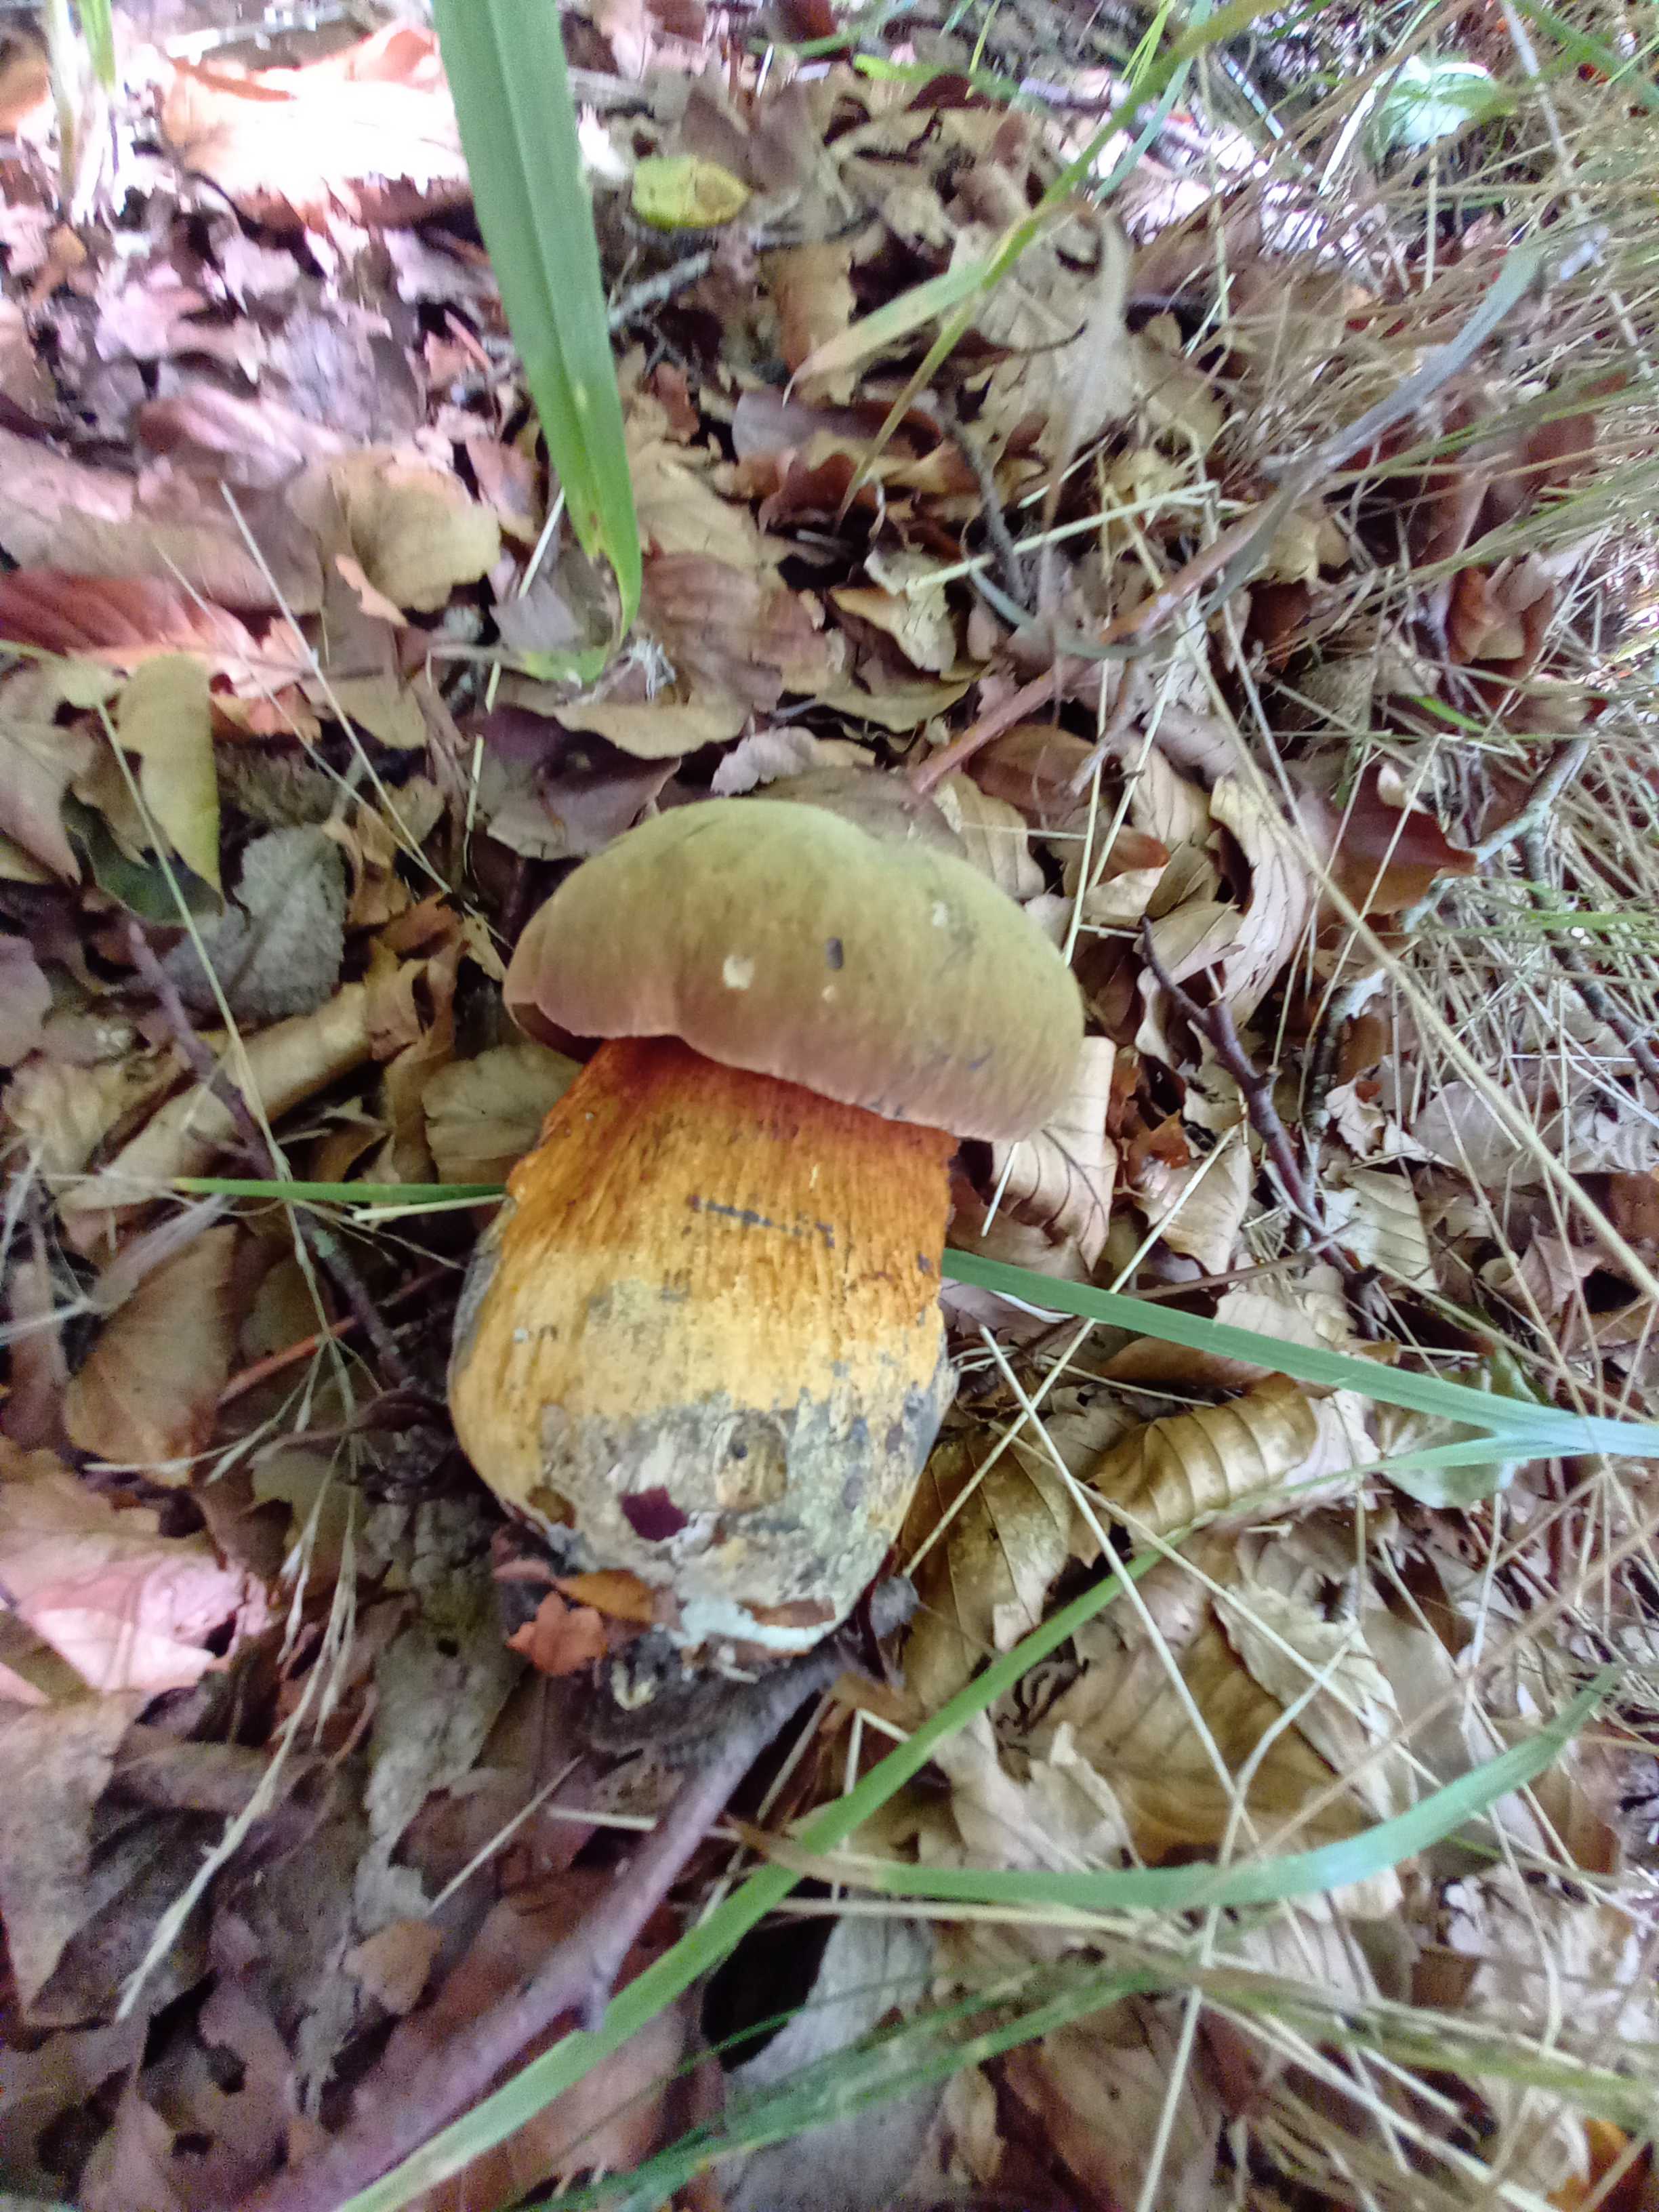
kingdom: Fungi
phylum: Basidiomycota
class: Agaricomycetes
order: Boletales
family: Boletaceae
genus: Suillellus
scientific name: Suillellus luridus
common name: netstokket indigorørhat
